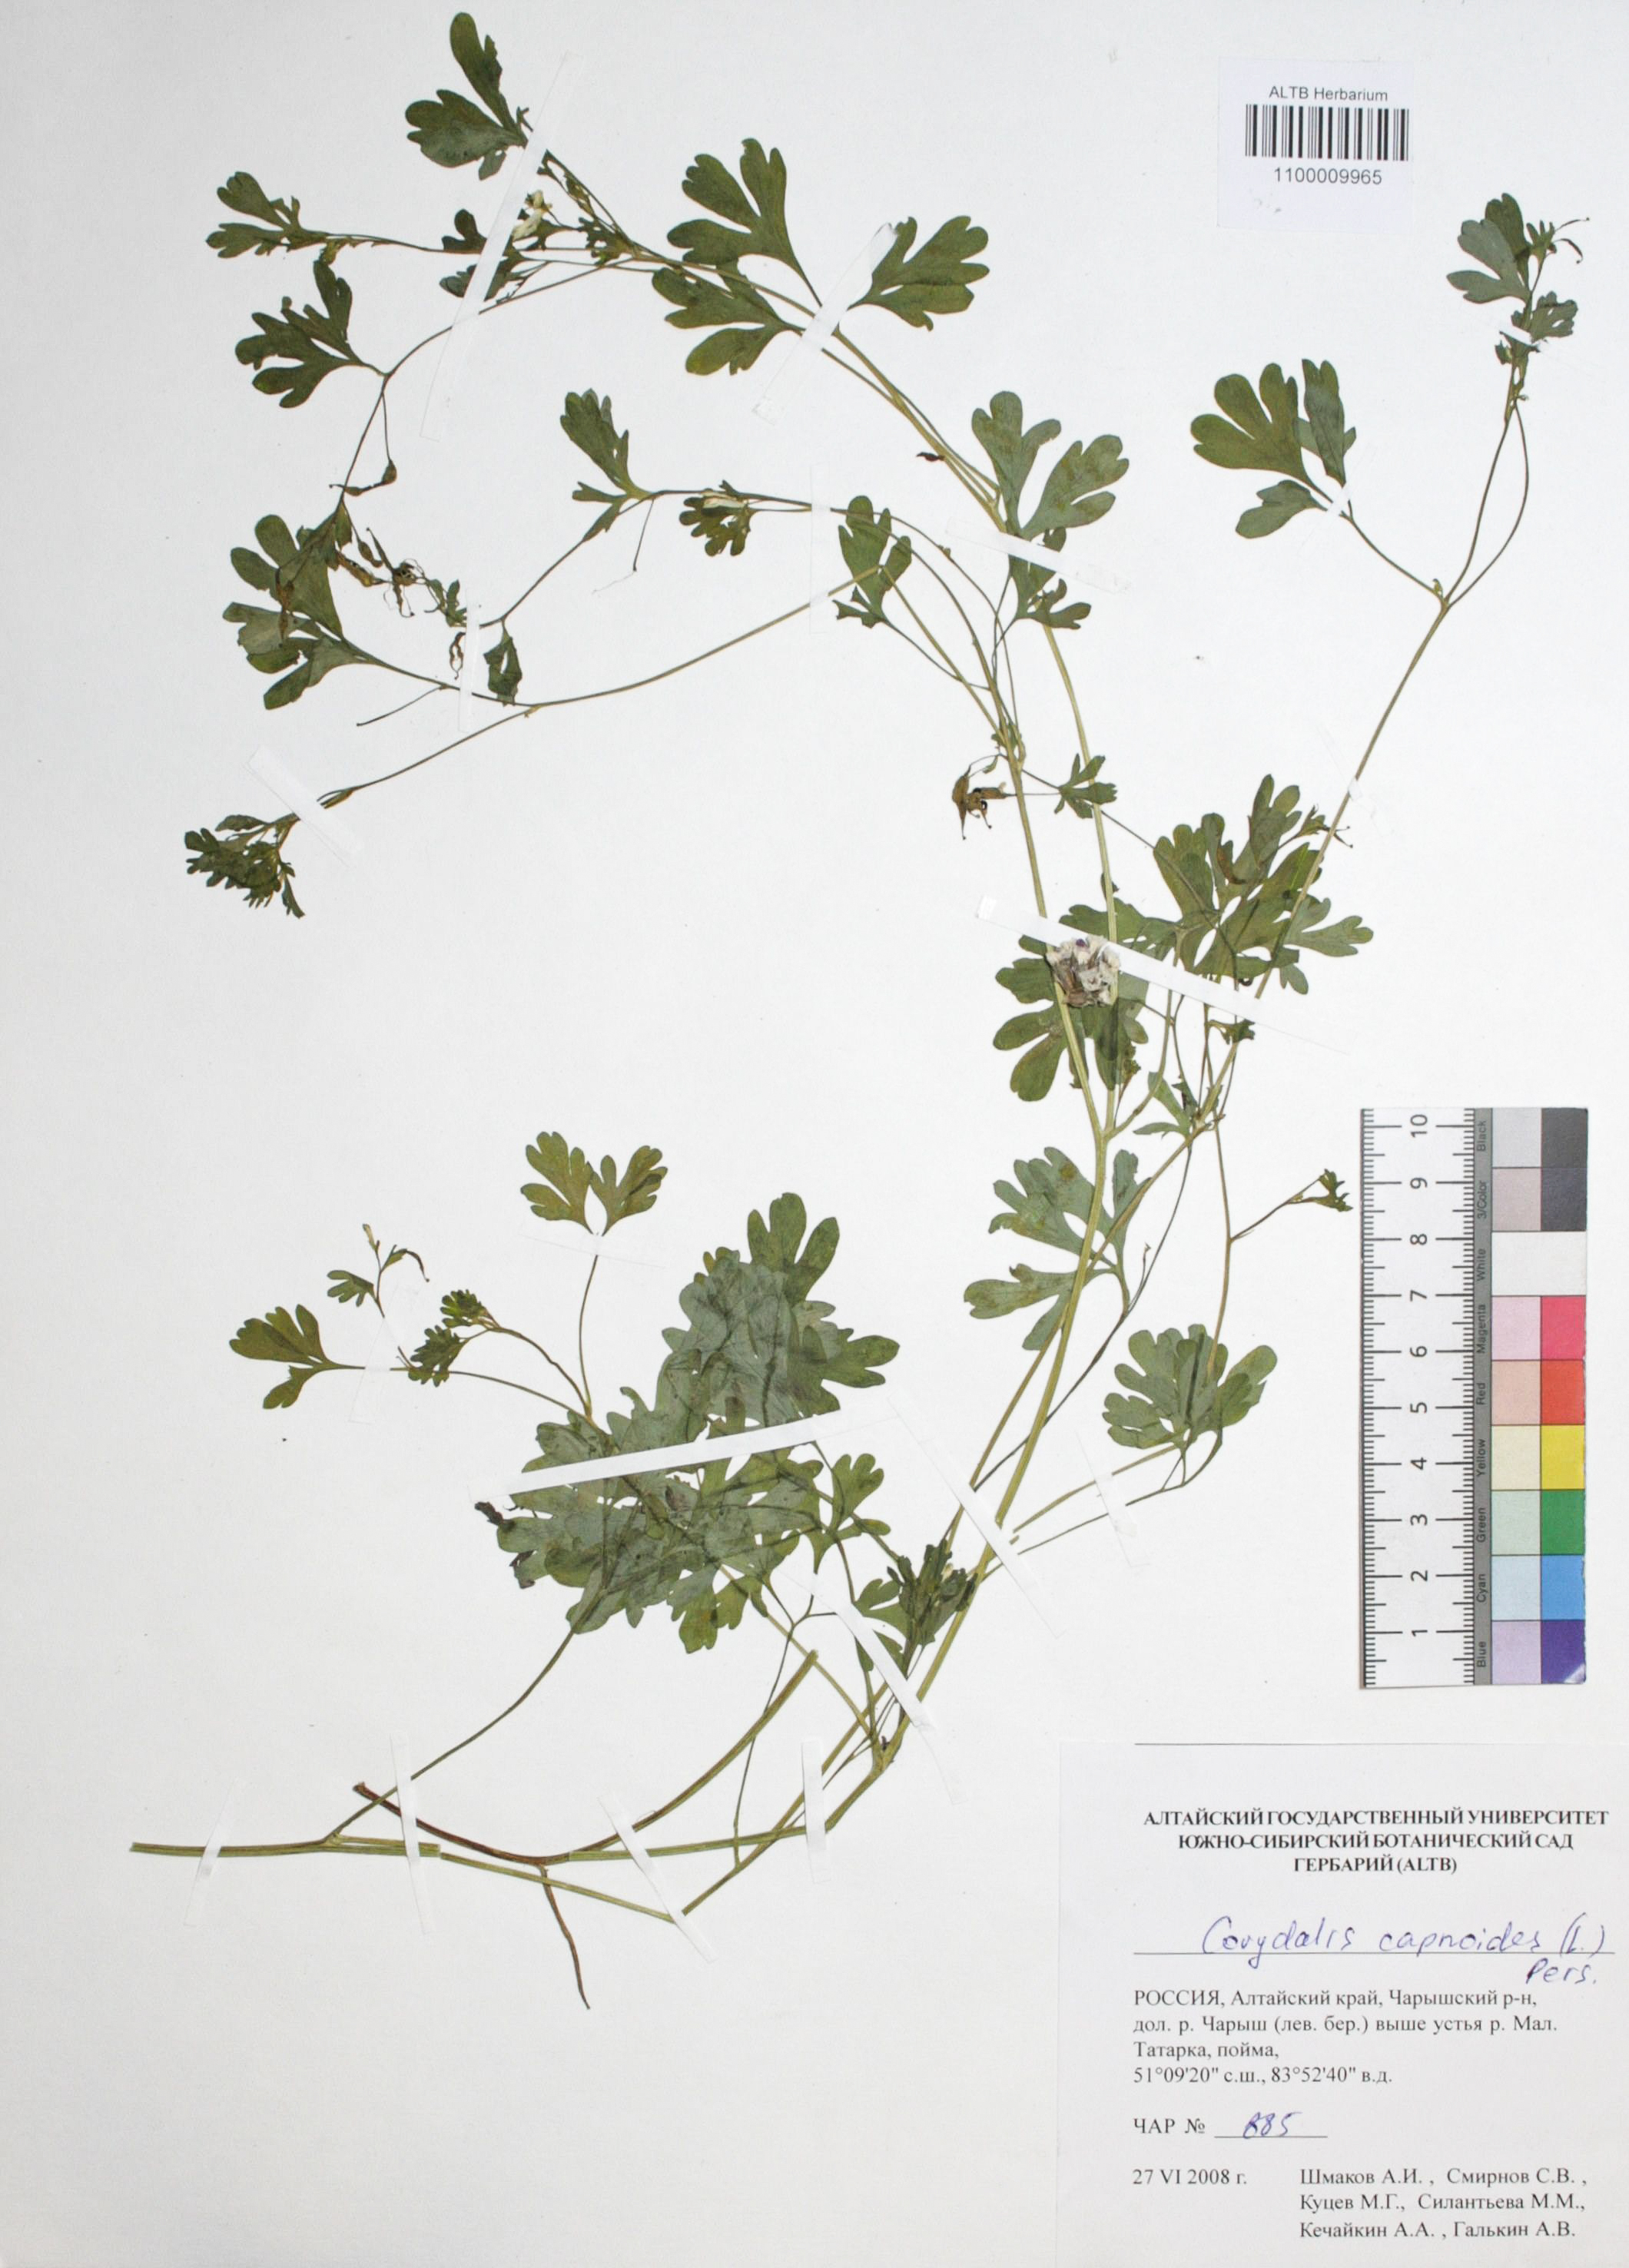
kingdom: Plantae
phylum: Tracheophyta
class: Magnoliopsida
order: Ranunculales
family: Papaveraceae
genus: Corydalis
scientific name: Corydalis capnoides
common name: Beaked corydalis
